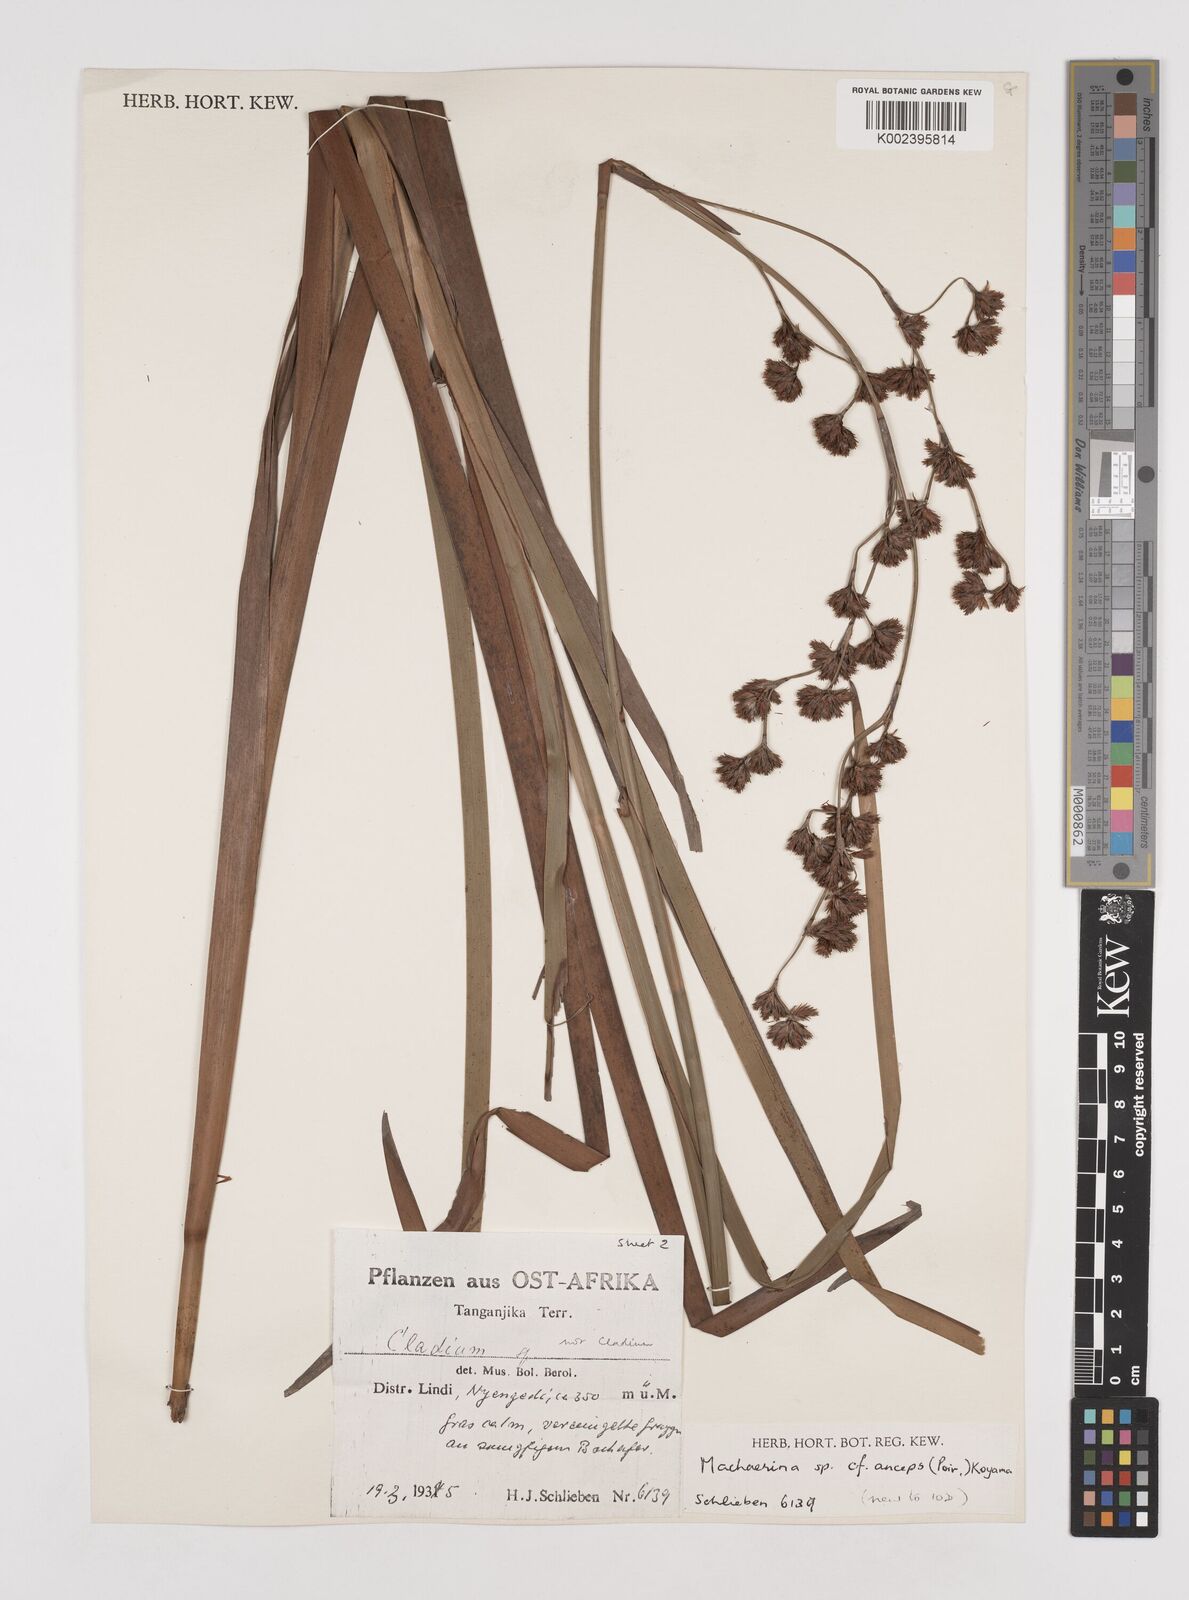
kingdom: Plantae
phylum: Tracheophyta
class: Liliopsida
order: Poales
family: Cyperaceae
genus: Machaerina
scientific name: Machaerina anceps
